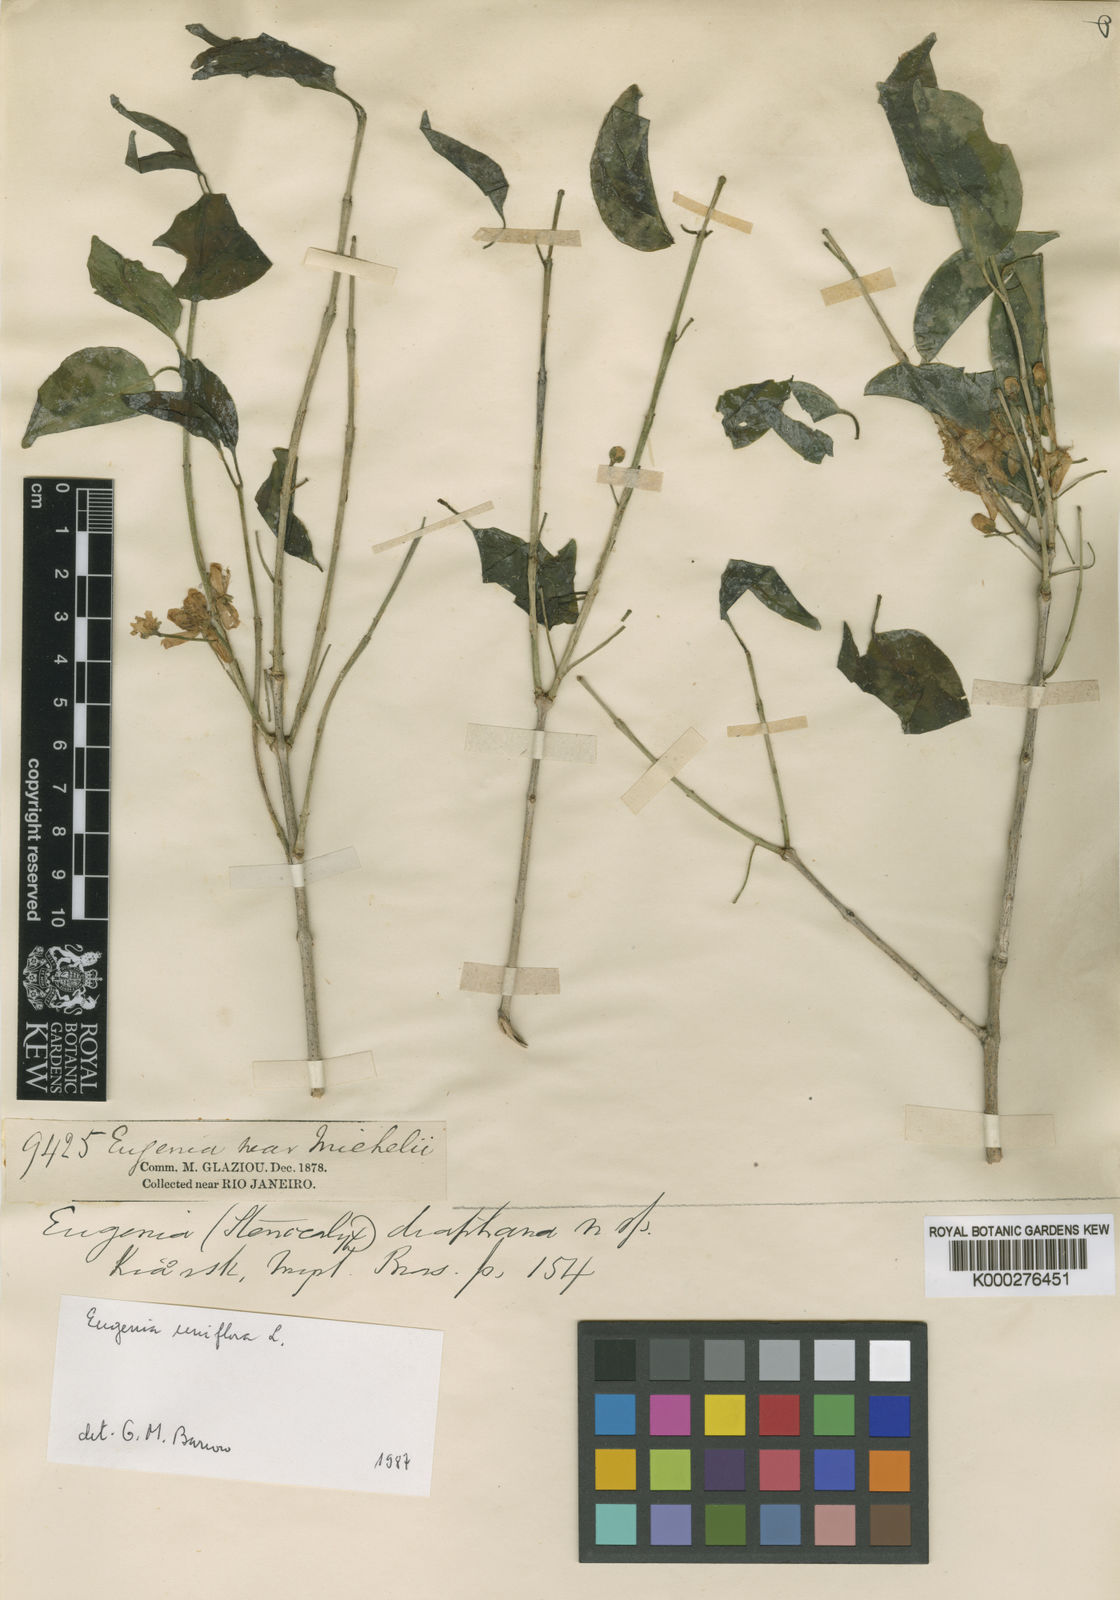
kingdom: Plantae
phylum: Tracheophyta
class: Magnoliopsida
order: Myrtales
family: Myrtaceae
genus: Eugenia
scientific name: Eugenia bergii
